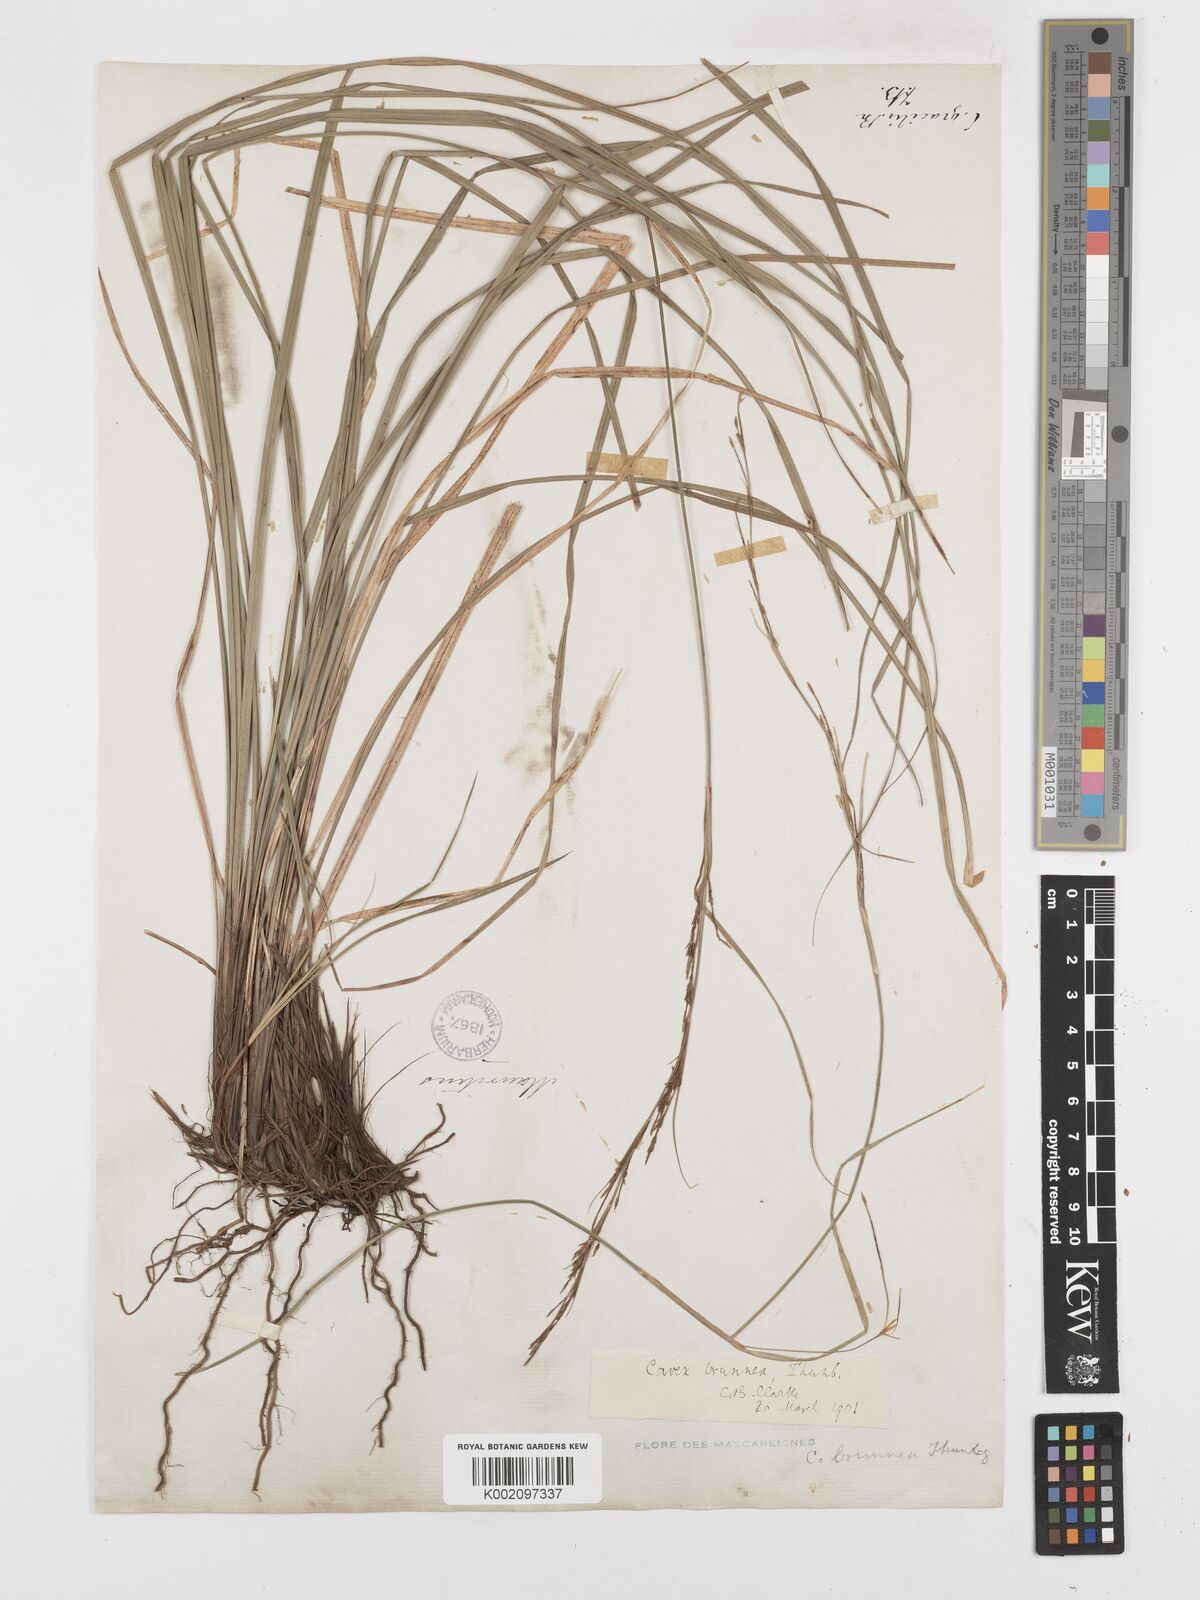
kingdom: Plantae
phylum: Tracheophyta
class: Liliopsida
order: Poales
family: Cyperaceae
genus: Carex
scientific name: Carex brunnea
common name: Greater brown sedge
